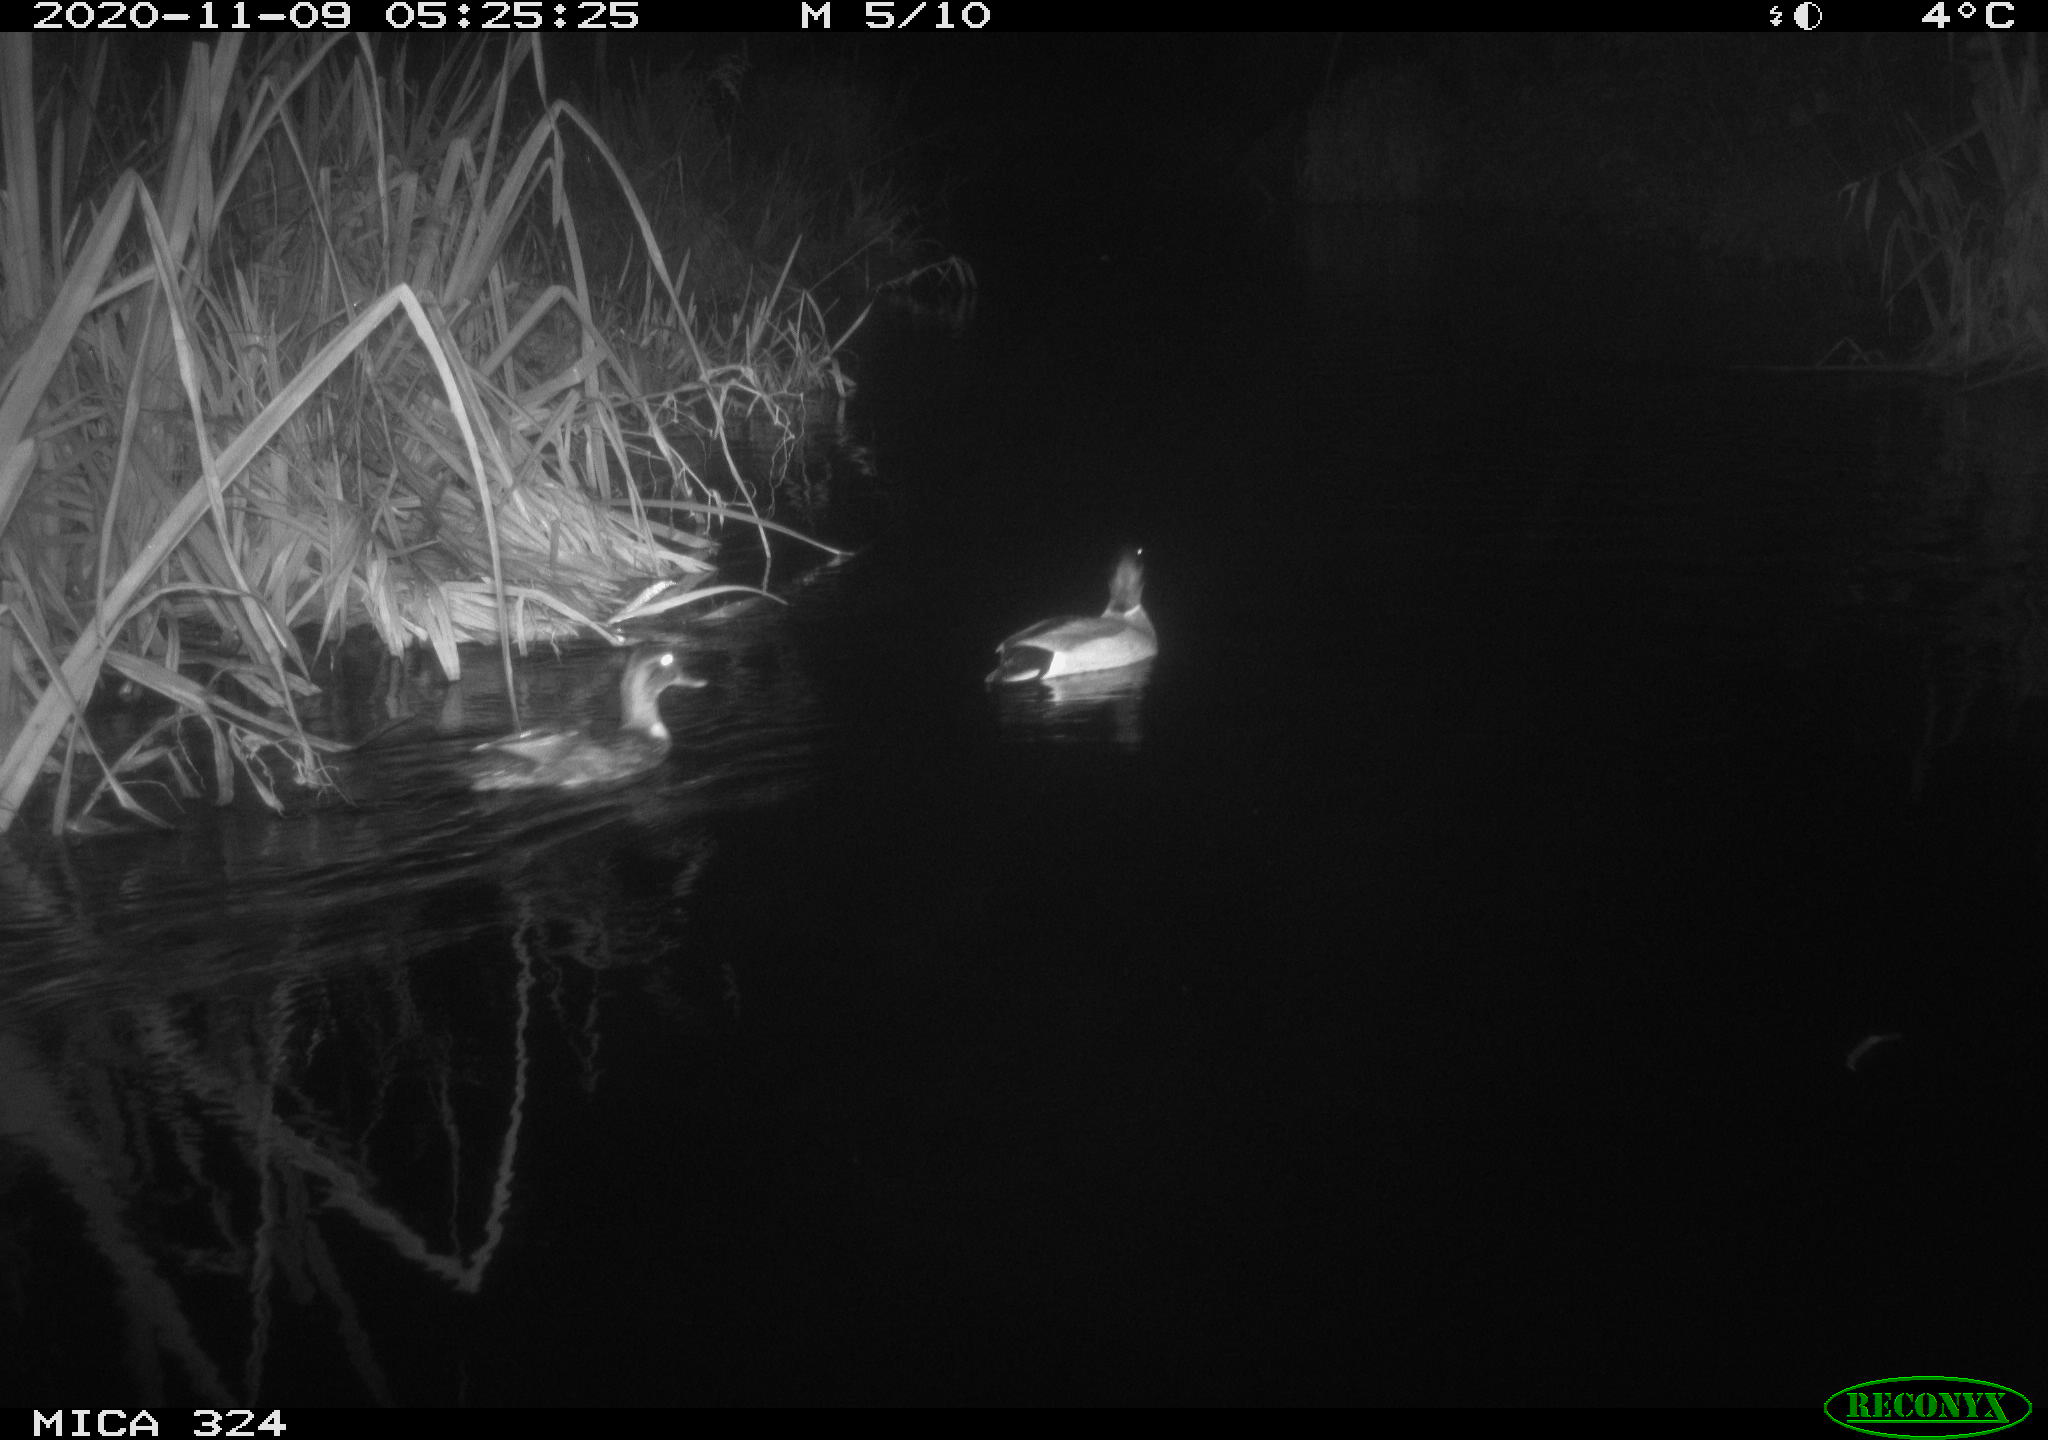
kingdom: Animalia
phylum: Chordata
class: Aves
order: Anseriformes
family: Anatidae
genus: Anas
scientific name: Anas platyrhynchos
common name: Mallard
